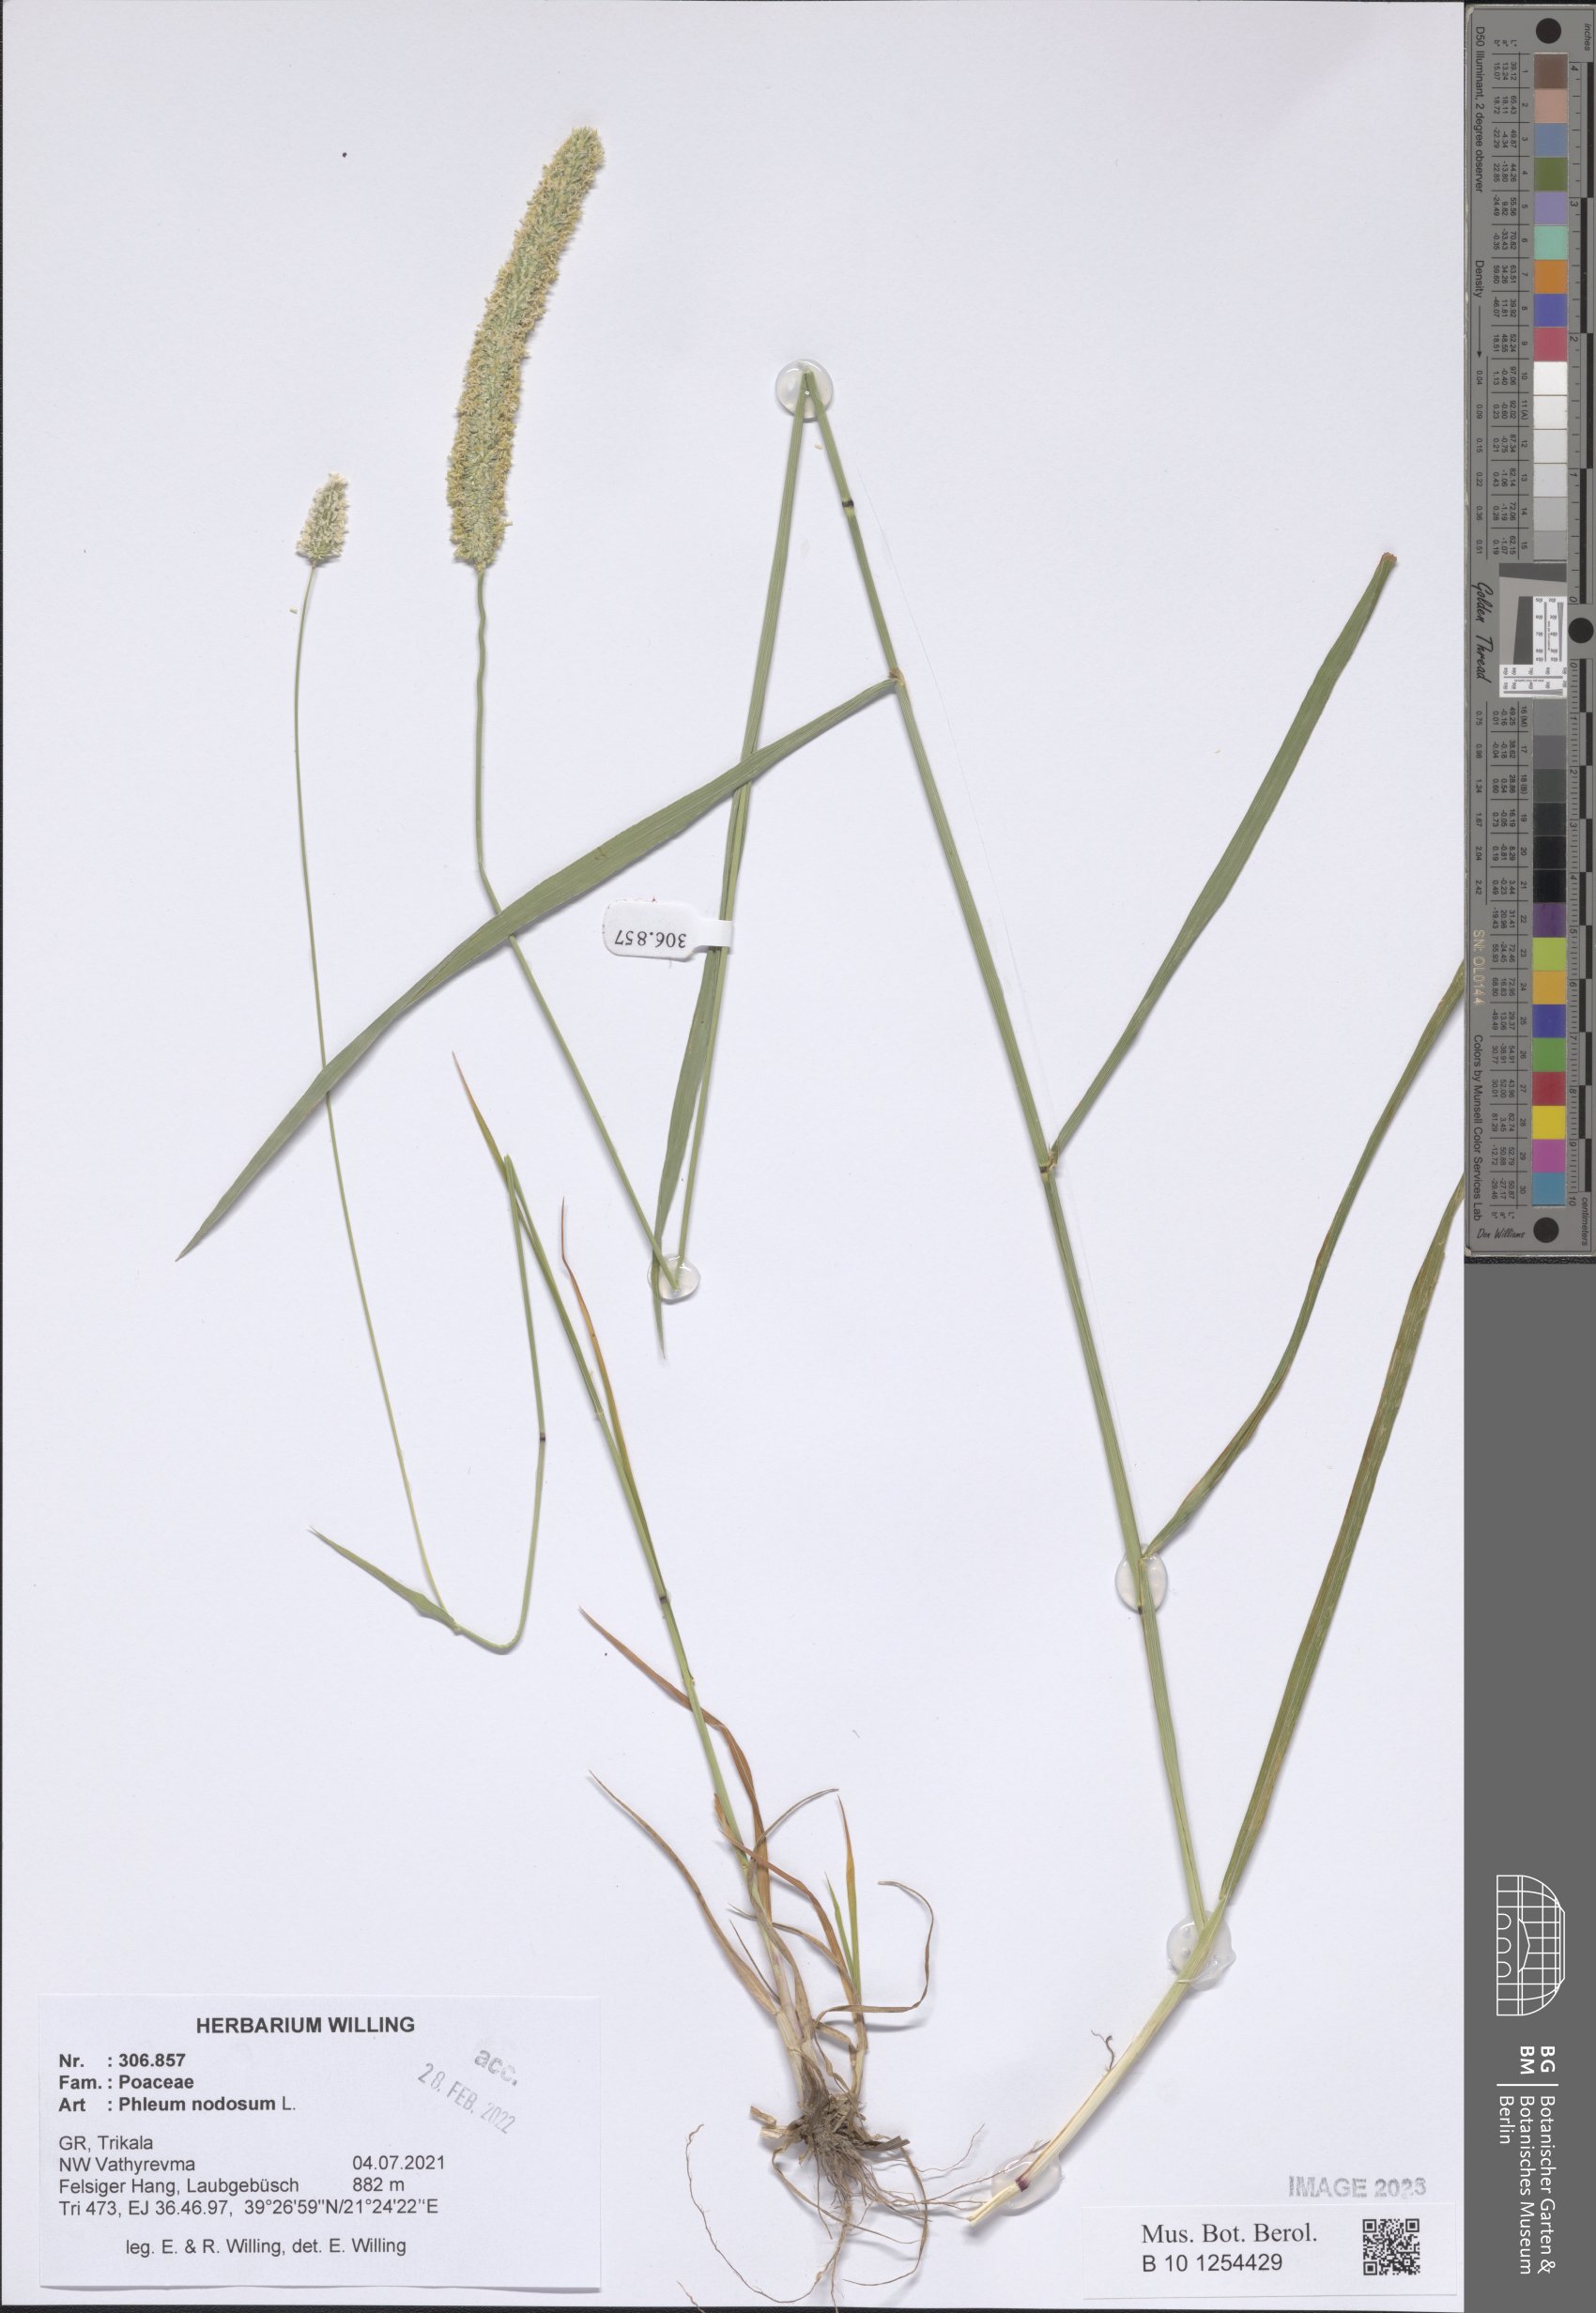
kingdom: Plantae
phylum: Tracheophyta
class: Liliopsida
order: Poales
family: Poaceae
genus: Phleum
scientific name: Phleum pratense
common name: Timothy grass
